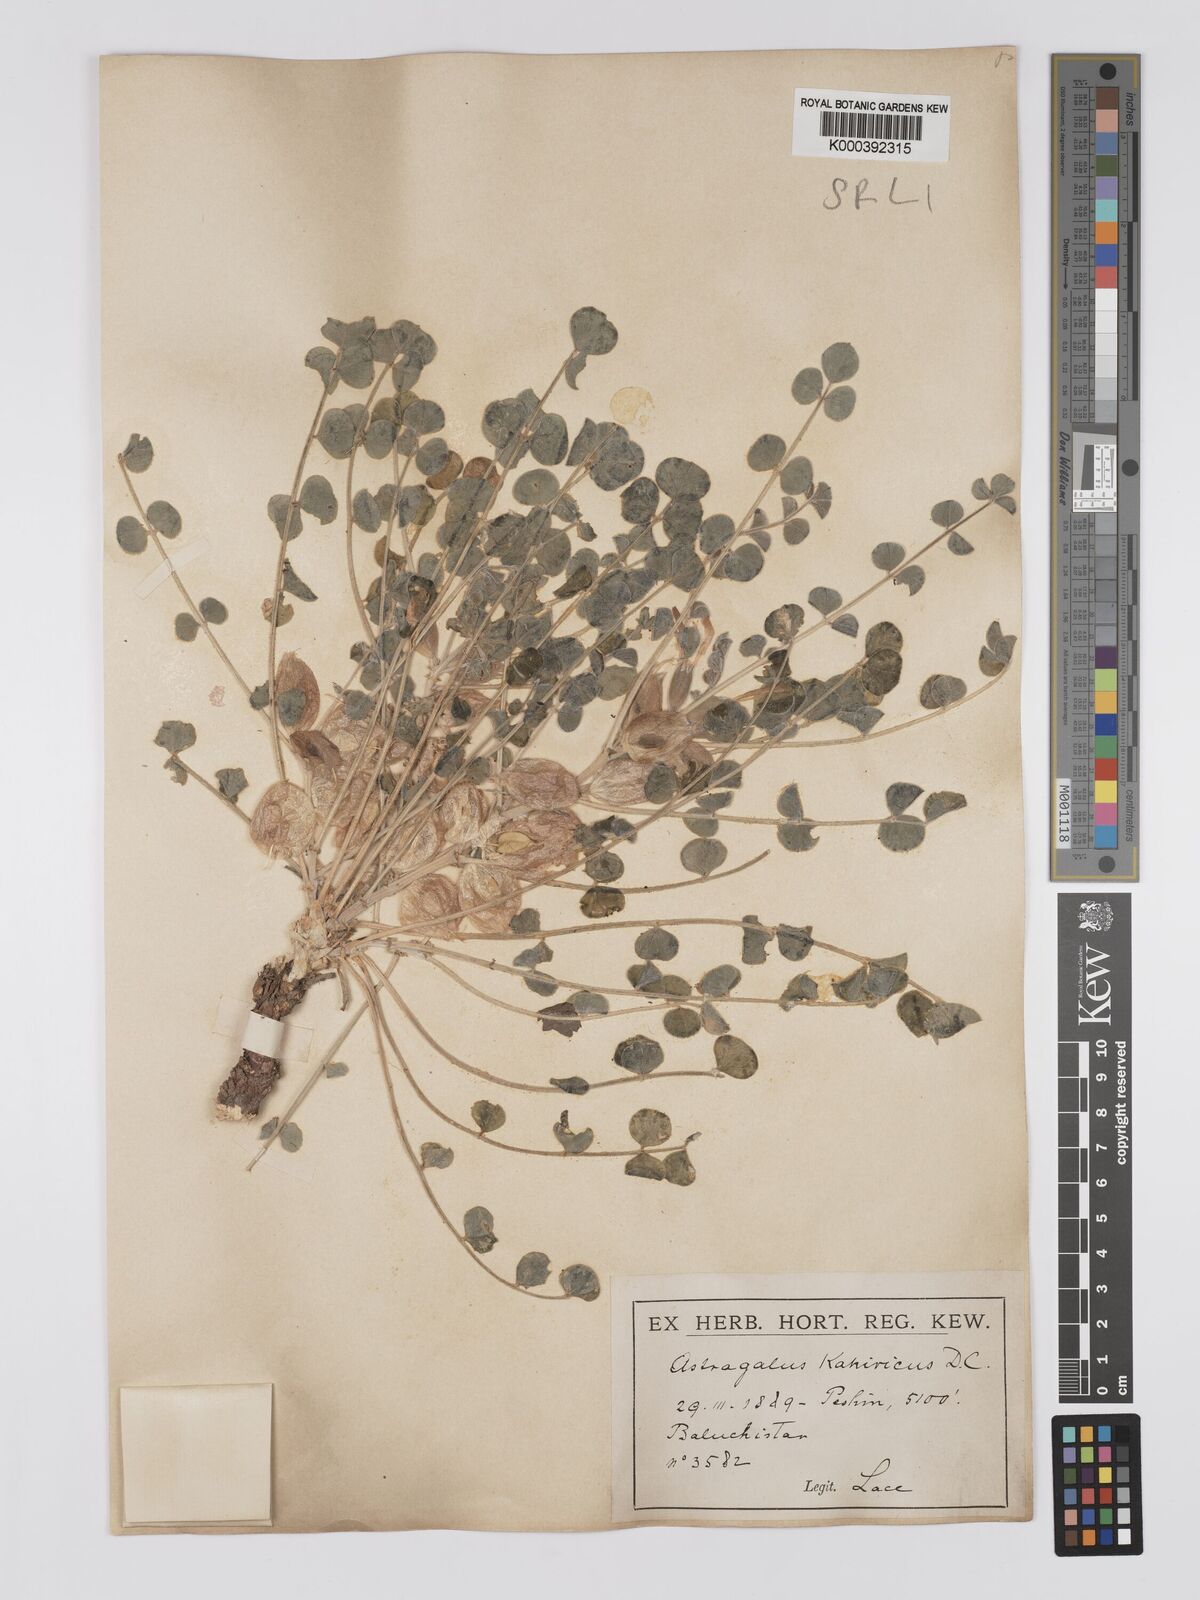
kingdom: Plantae
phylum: Tracheophyta
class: Magnoliopsida
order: Fabales
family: Fabaceae
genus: Astragalus
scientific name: Astragalus kahiricus
